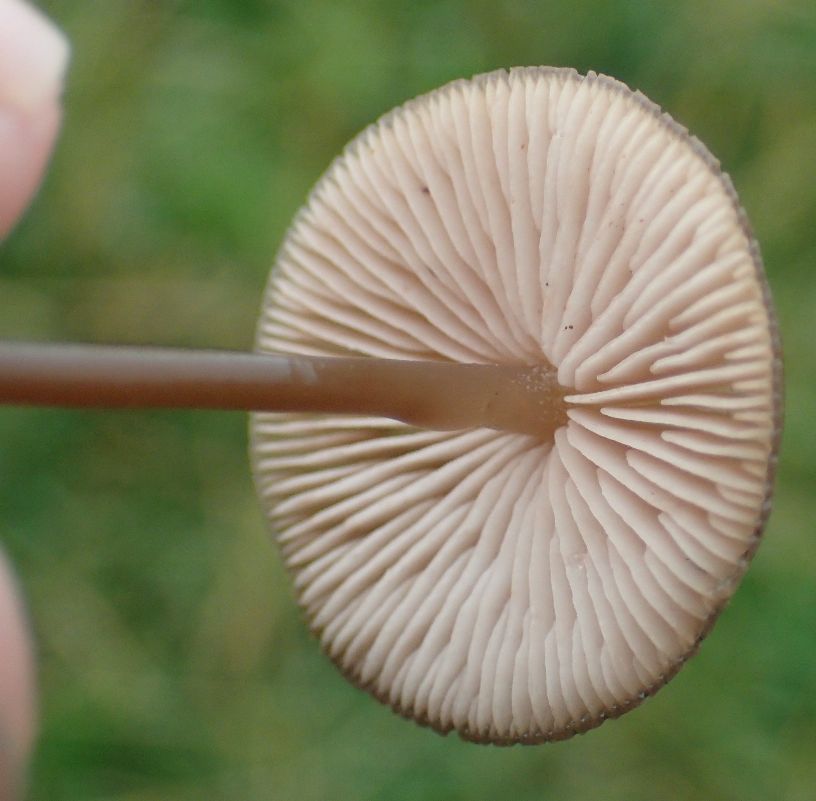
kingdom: Fungi
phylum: Basidiomycota
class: Agaricomycetes
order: Agaricales
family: Entolomataceae
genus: Entoloma
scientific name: Entoloma infula
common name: hvidbladet rødblad
